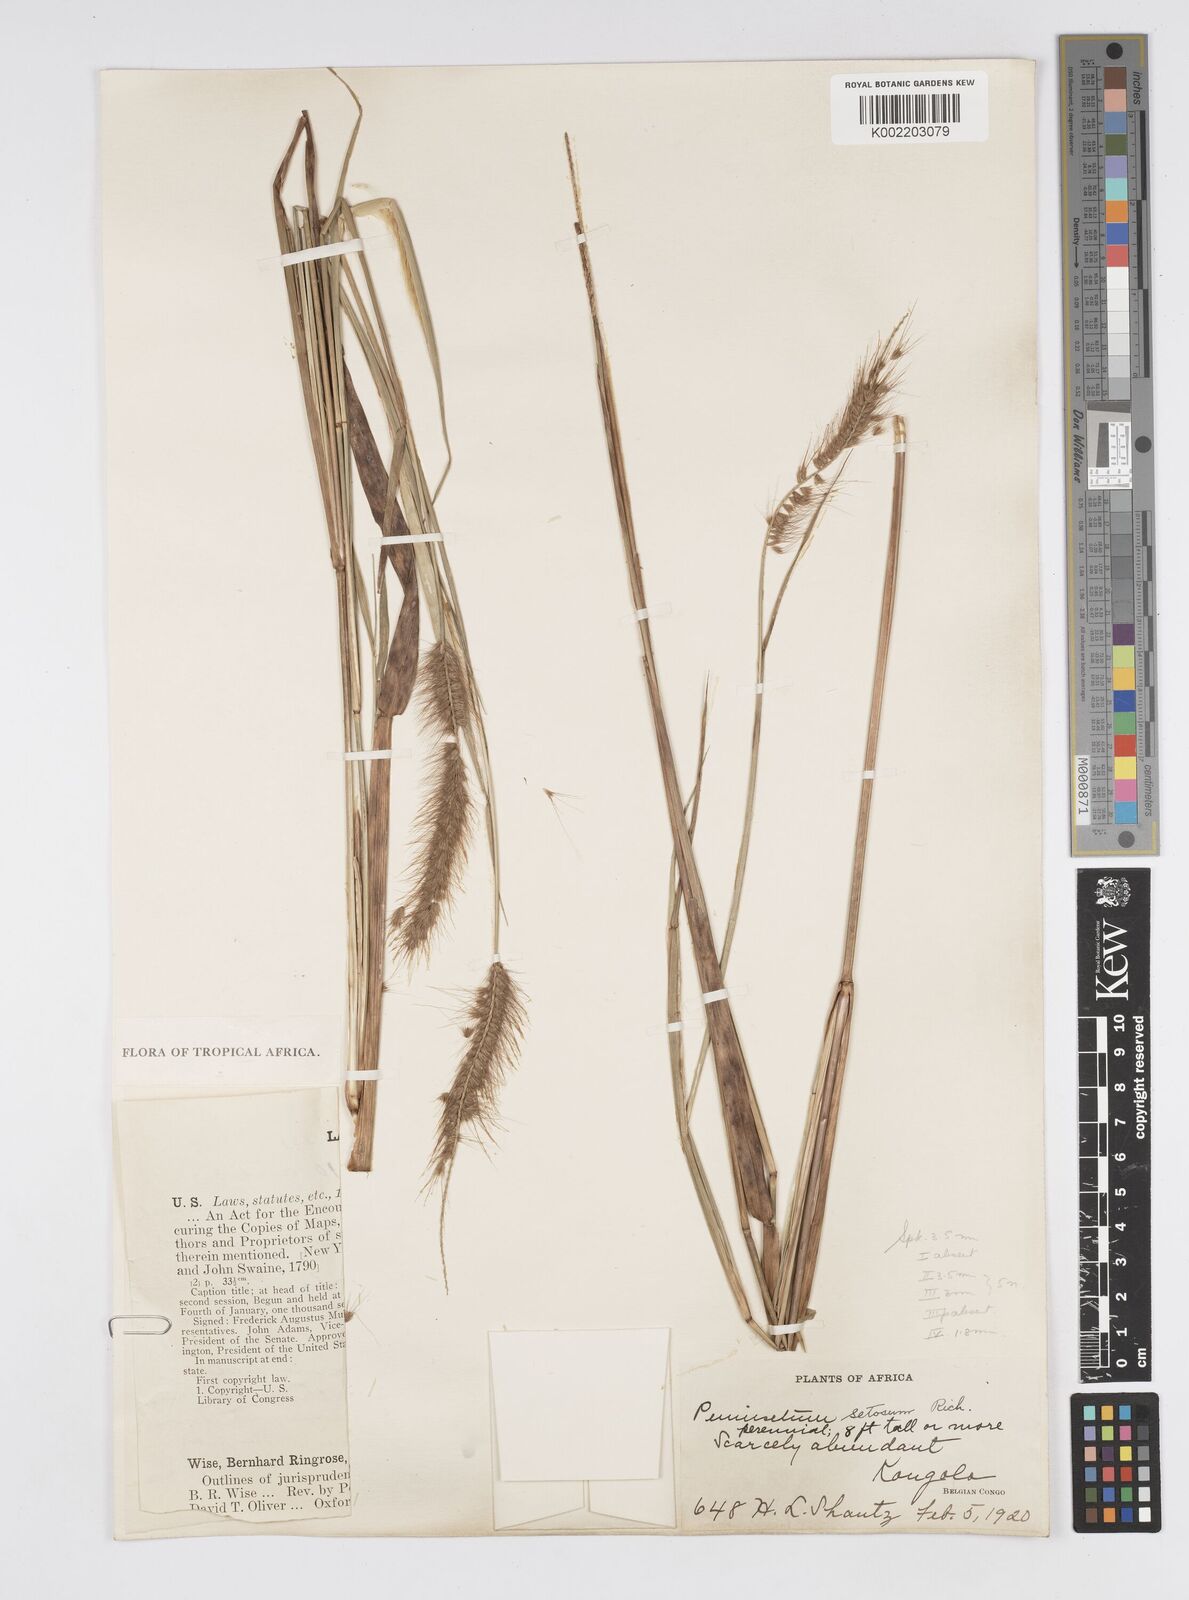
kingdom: Plantae
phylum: Tracheophyta
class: Liliopsida
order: Poales
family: Poaceae
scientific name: Poaceae
